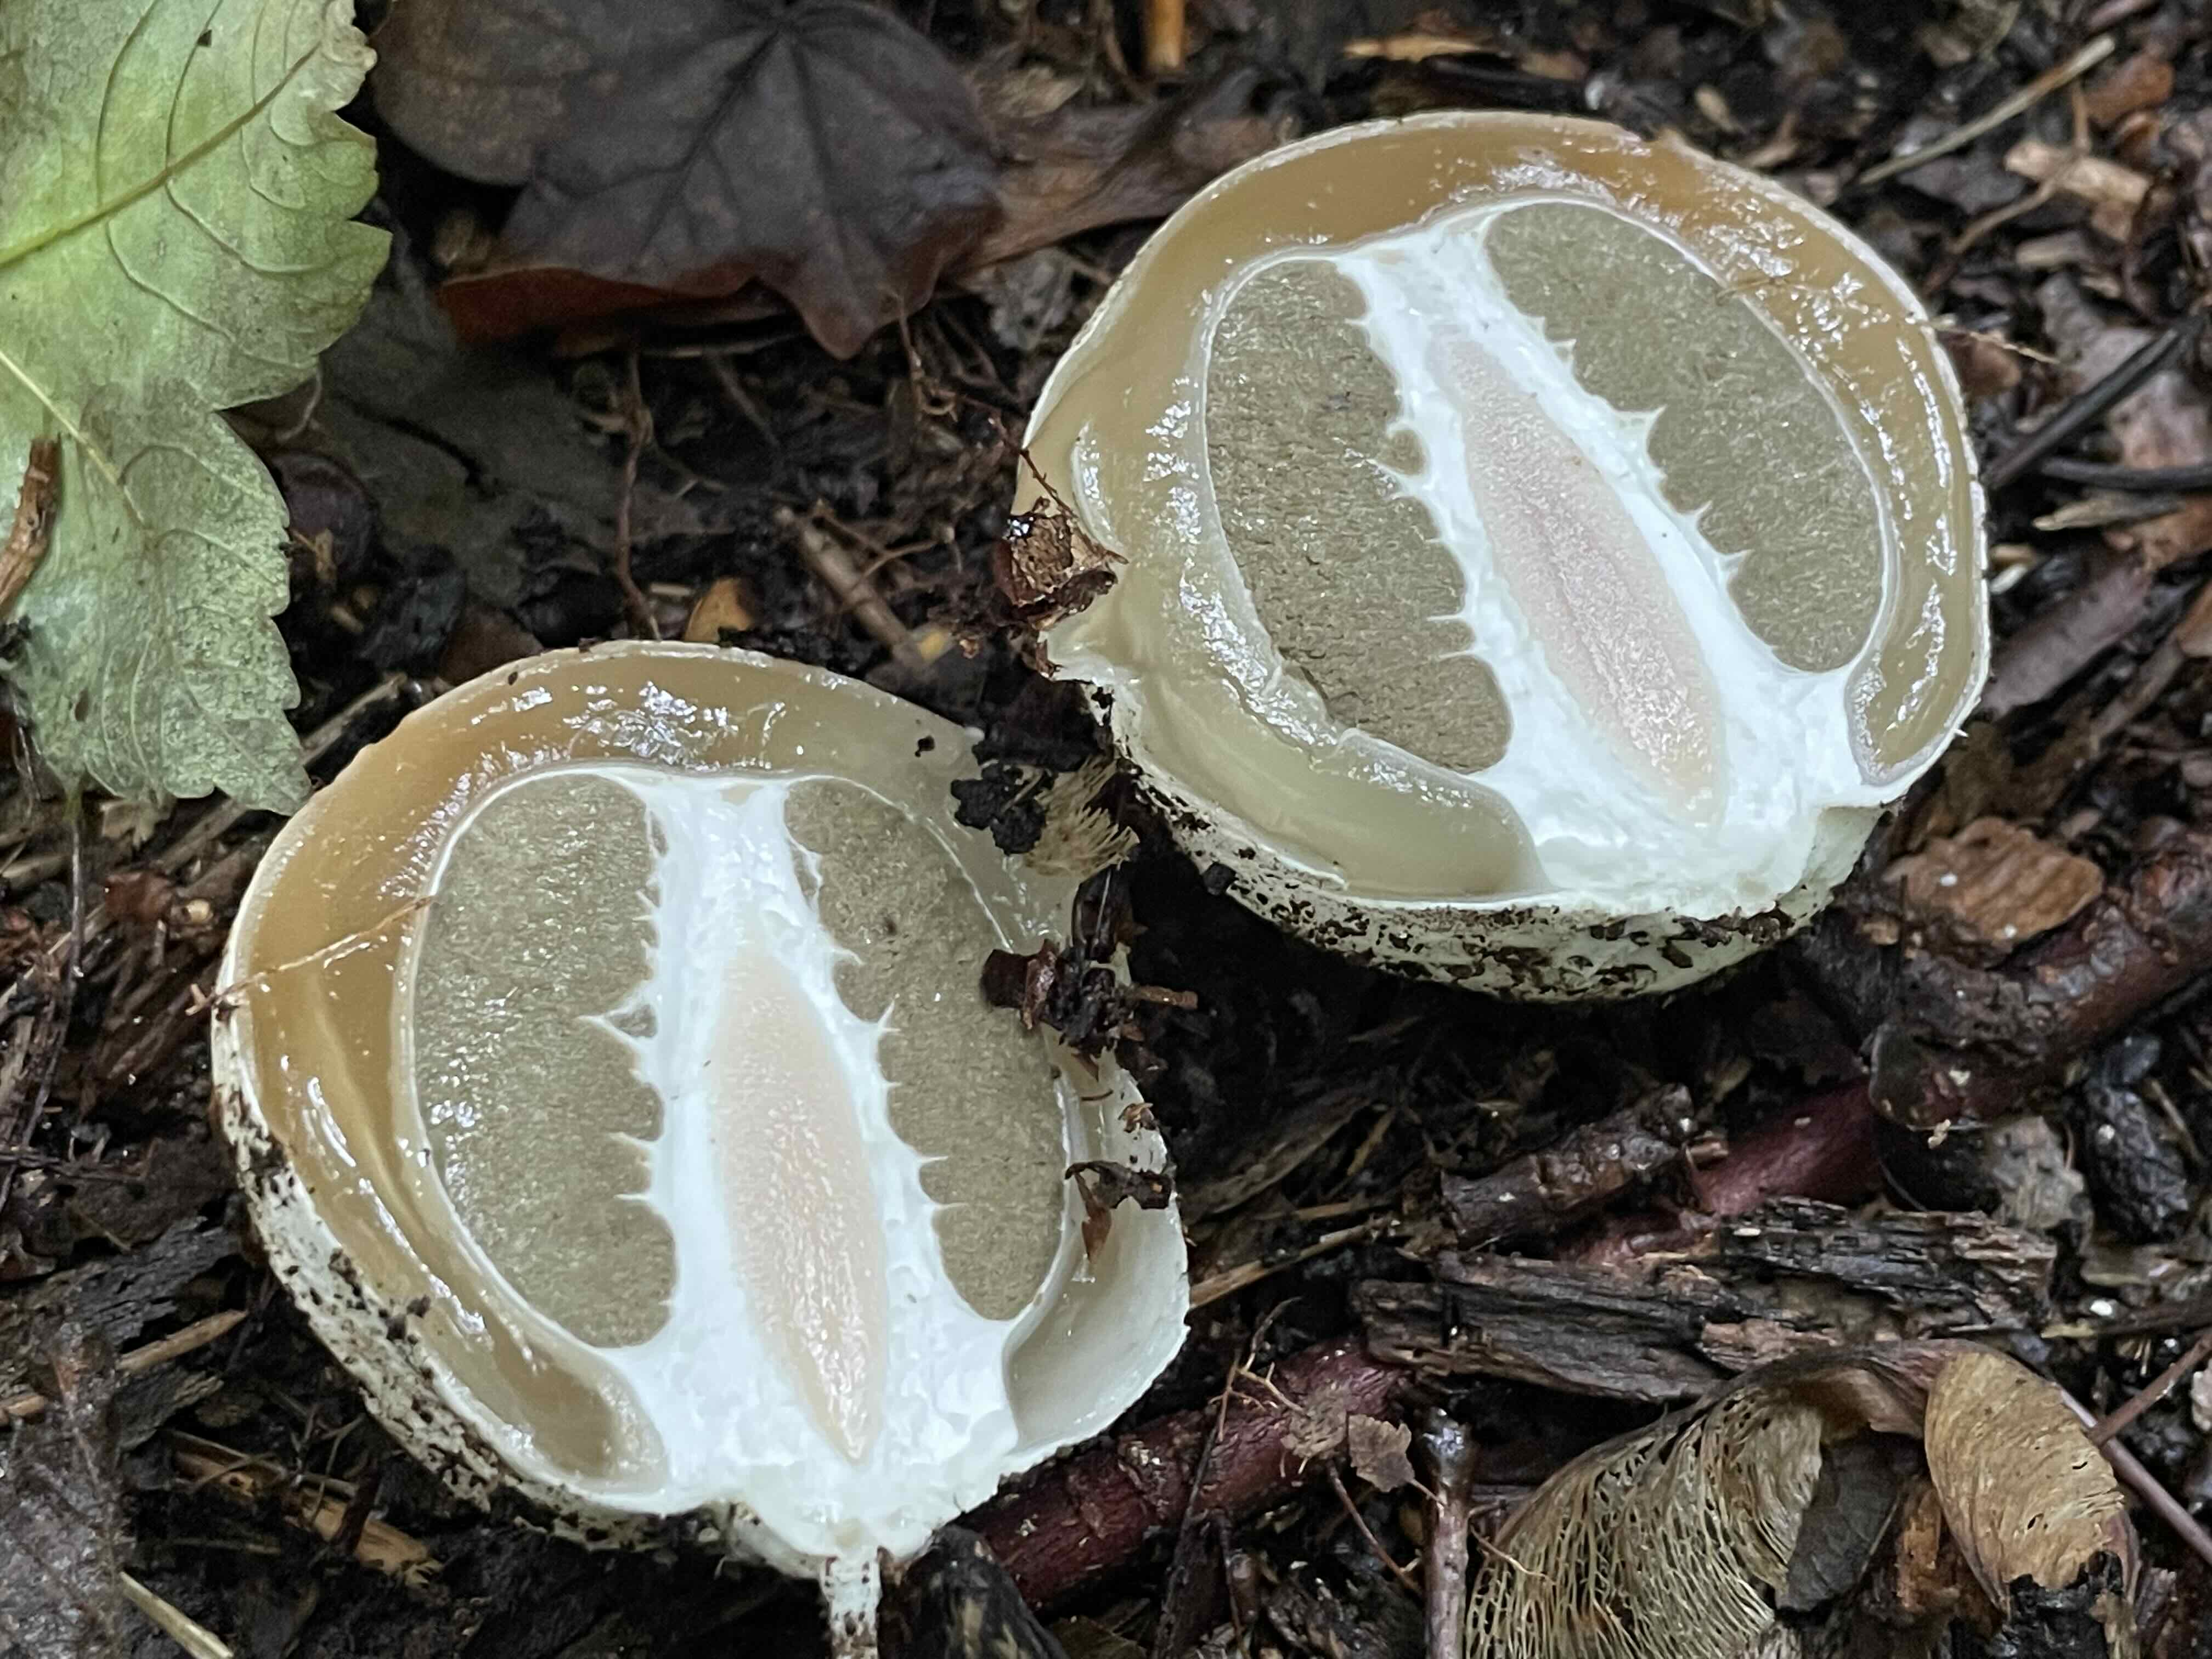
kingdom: Fungi
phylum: Basidiomycota
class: Agaricomycetes
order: Phallales
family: Phallaceae
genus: Phallus
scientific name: Phallus impudicus
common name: almindelig stinksvamp
